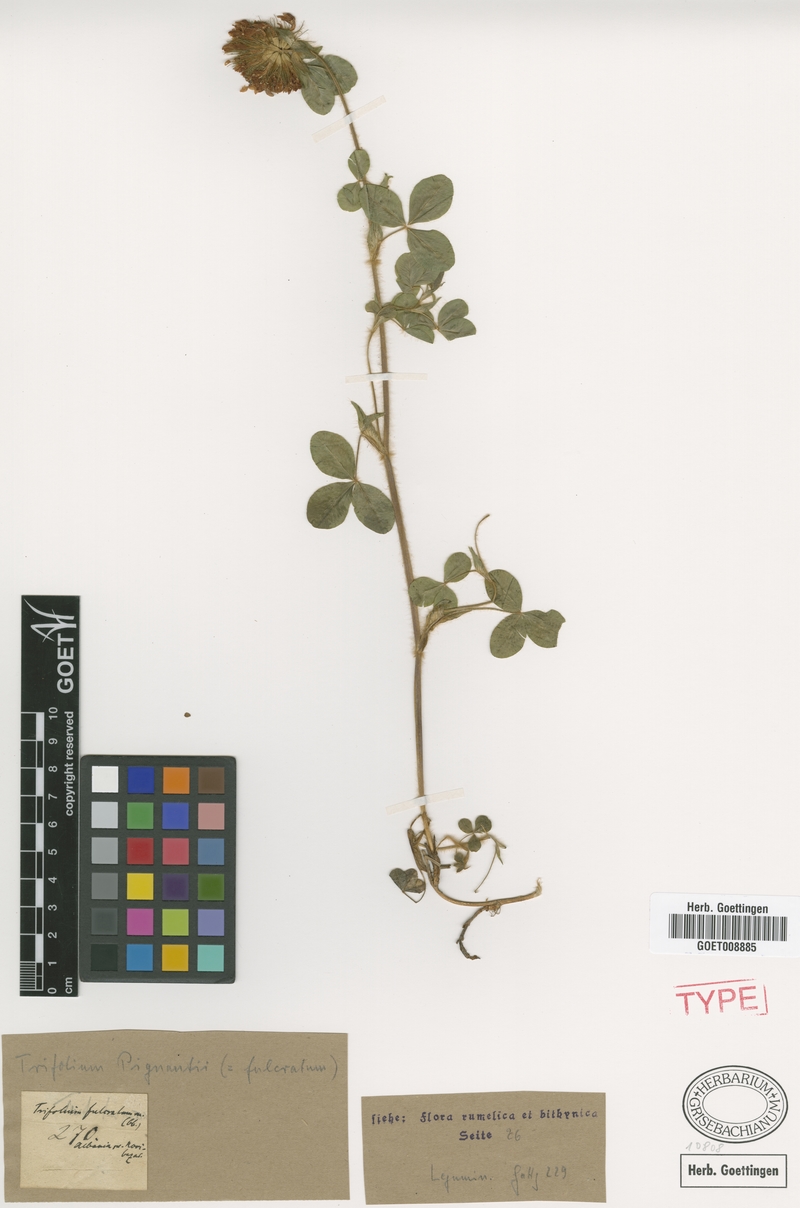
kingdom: Plantae
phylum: Tracheophyta
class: Magnoliopsida
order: Fabales
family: Fabaceae
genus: Trifolium
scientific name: Trifolium pignantii
